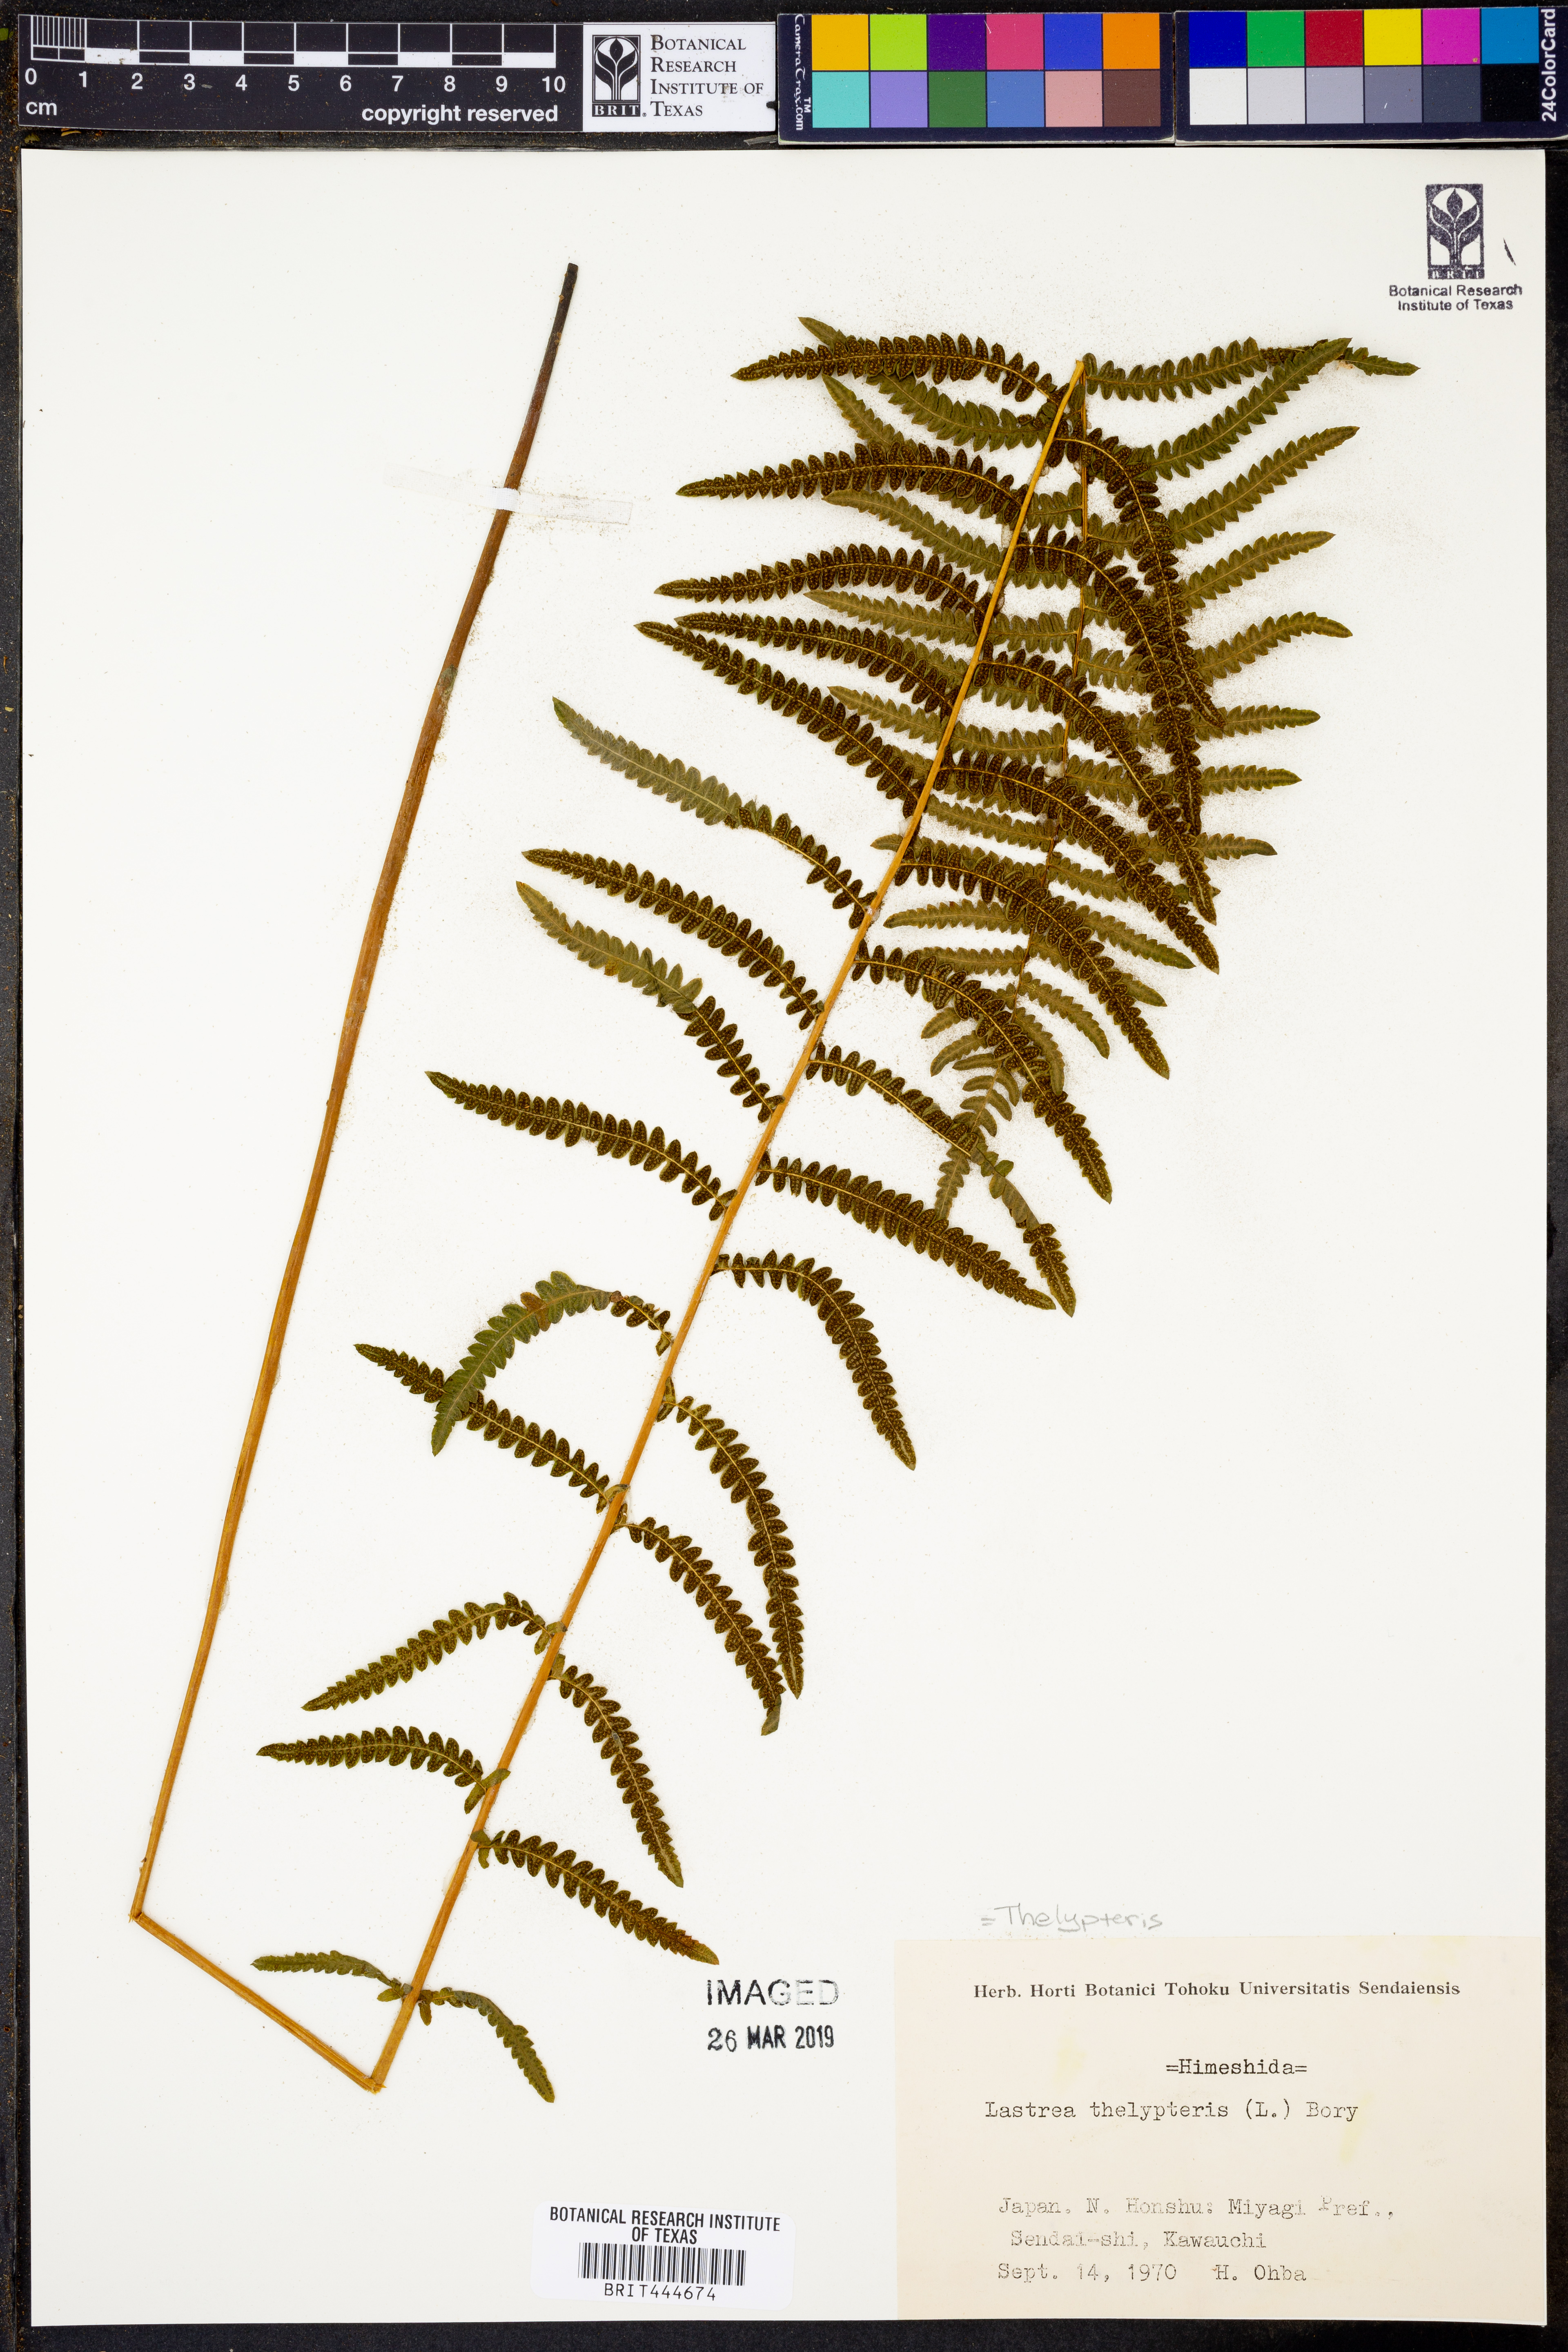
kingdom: Plantae
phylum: Tracheophyta
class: Polypodiopsida
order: Polypodiales
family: Thelypteridaceae
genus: Thelypteris
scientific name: Thelypteris confluens
